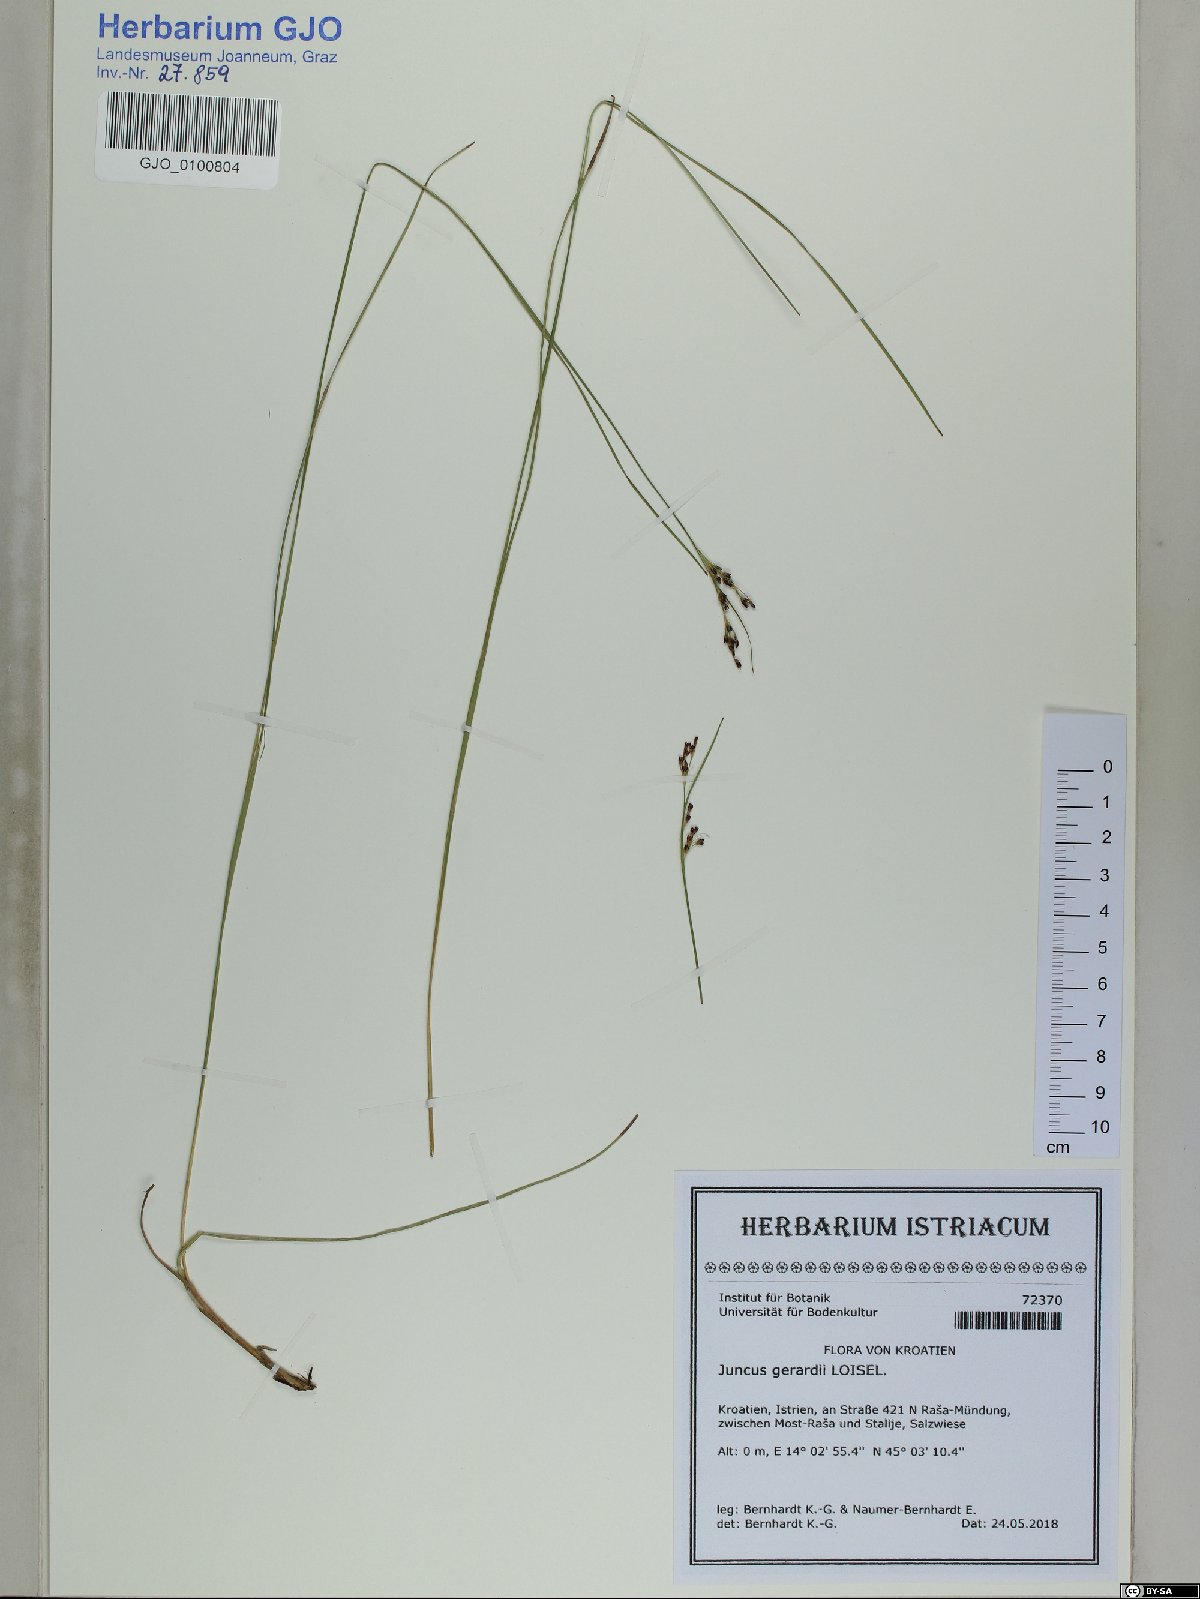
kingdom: Plantae
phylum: Tracheophyta
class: Liliopsida
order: Poales
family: Juncaceae
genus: Juncus
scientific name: Juncus gerardi
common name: Saltmarsh rush
